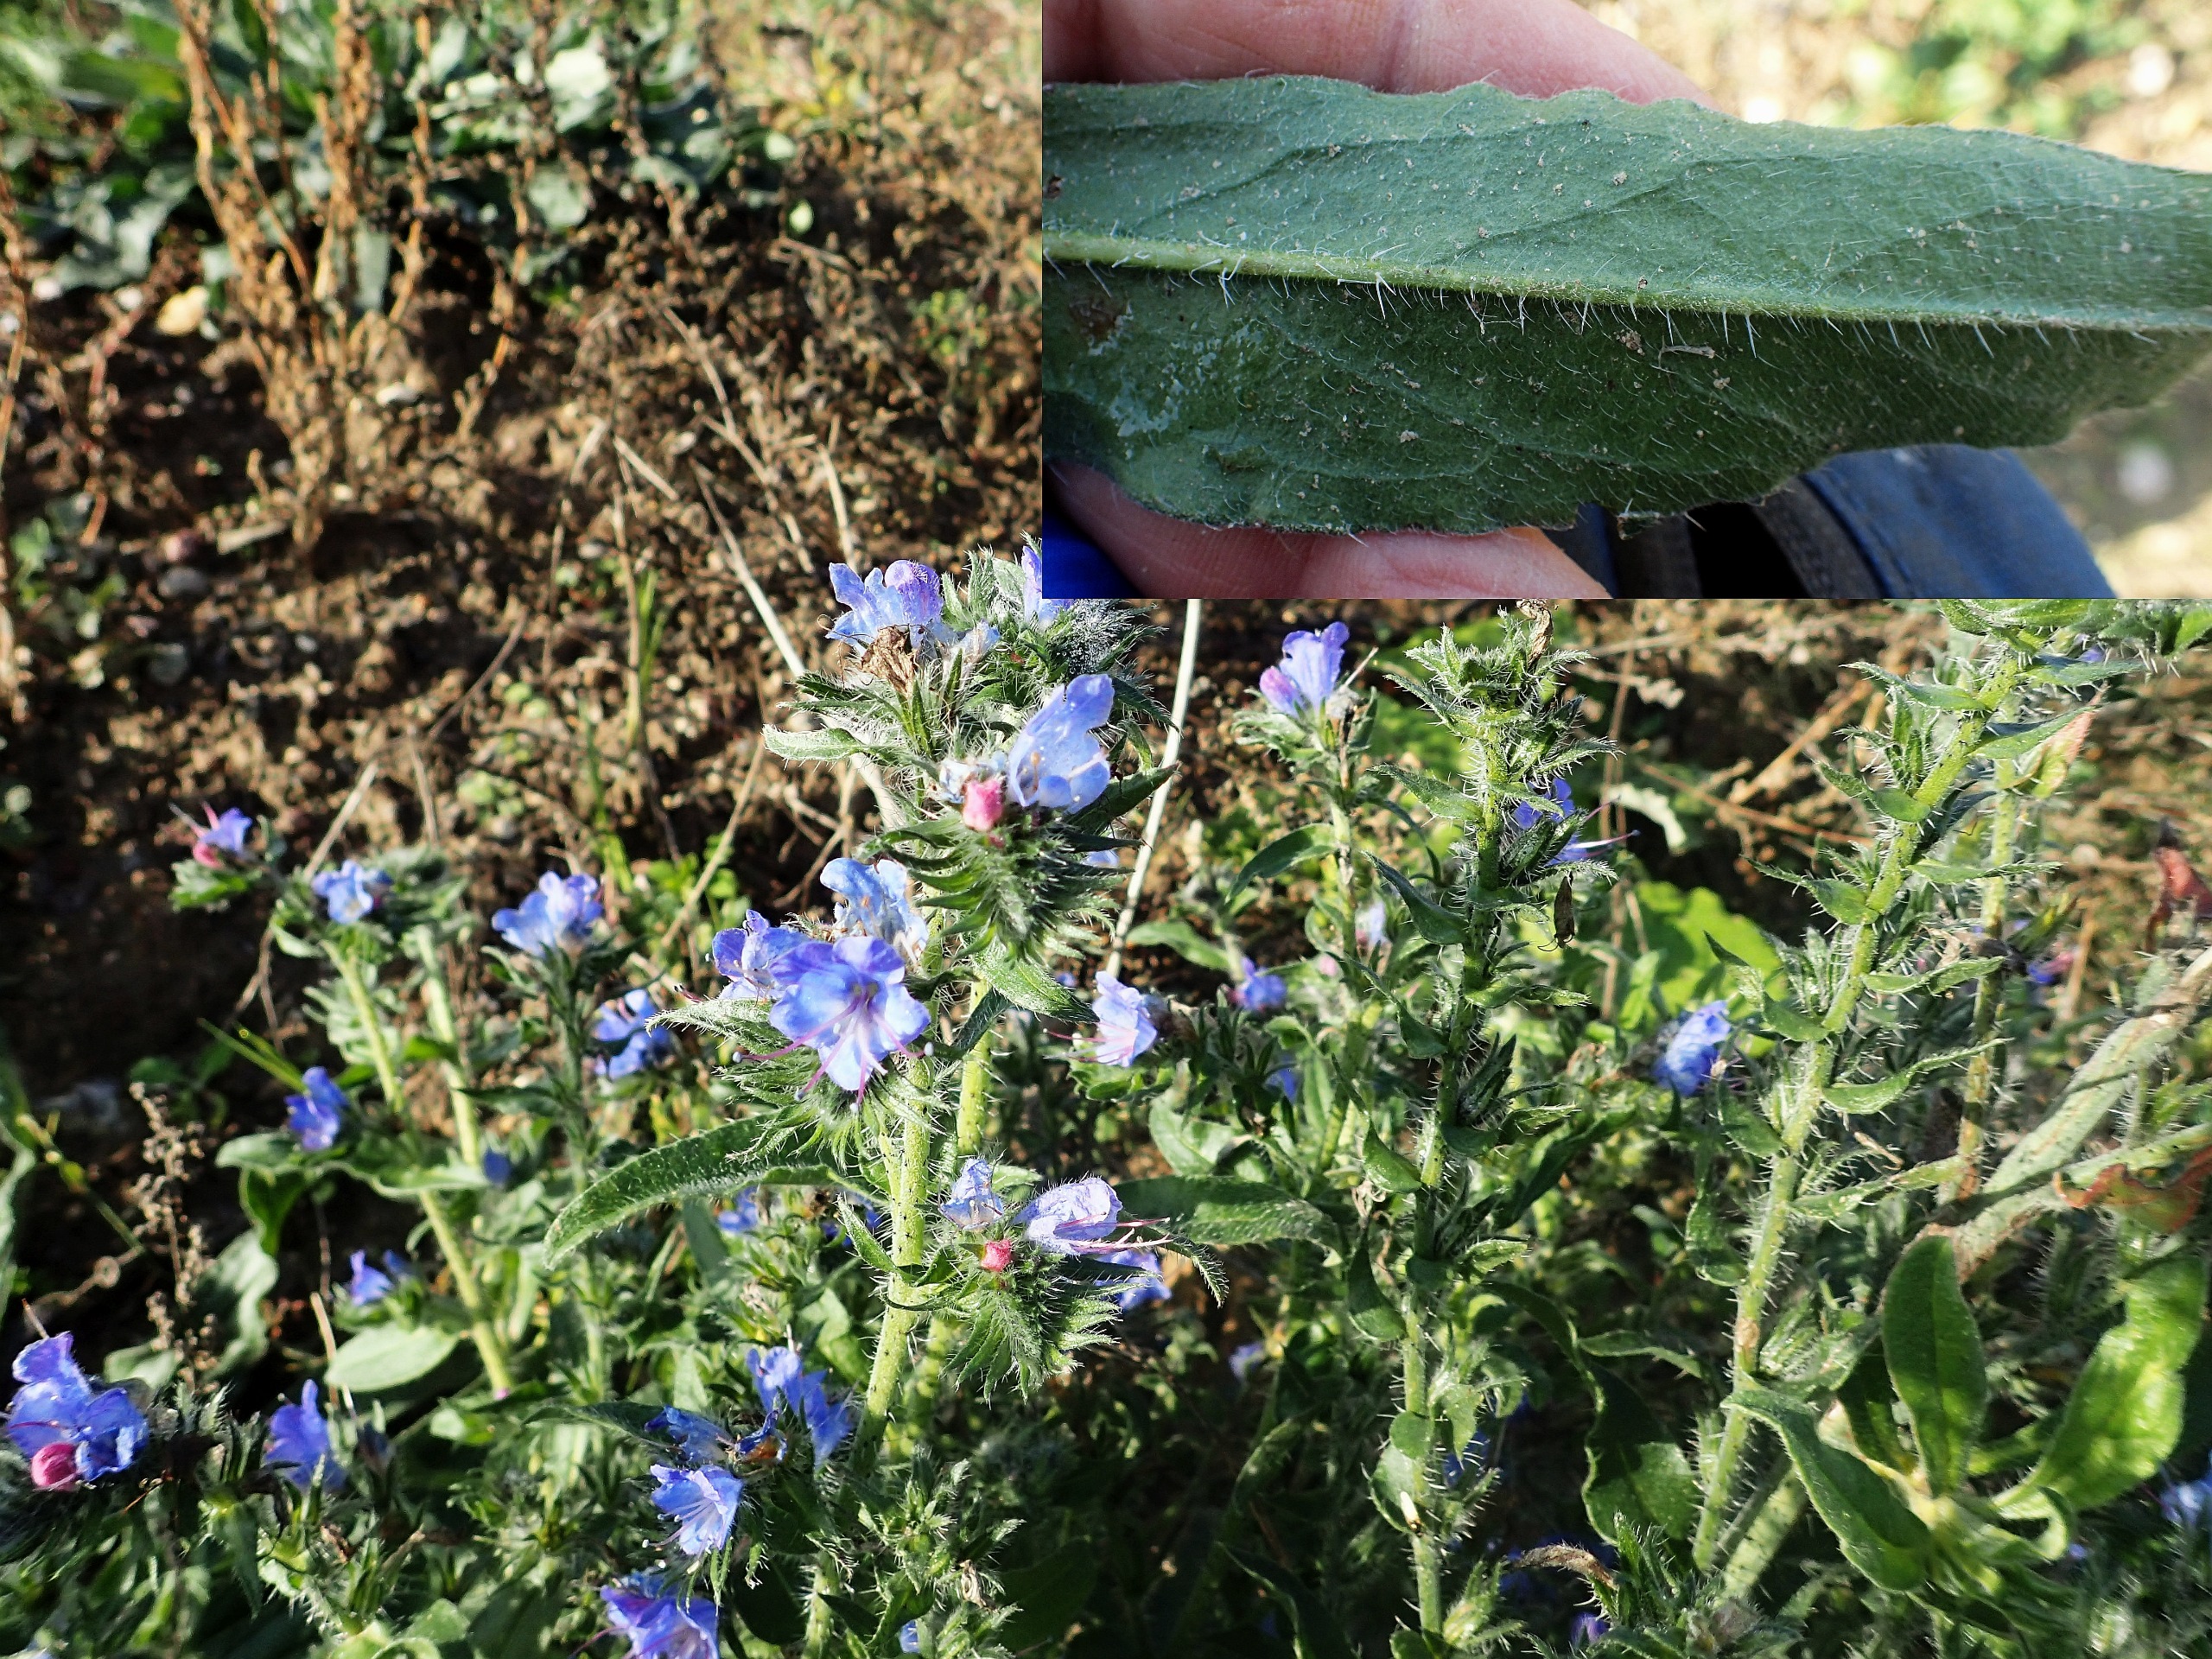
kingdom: Plantae
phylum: Tracheophyta
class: Magnoliopsida
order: Boraginales
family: Boraginaceae
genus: Echium
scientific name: Echium vulgare
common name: Slangehoved
